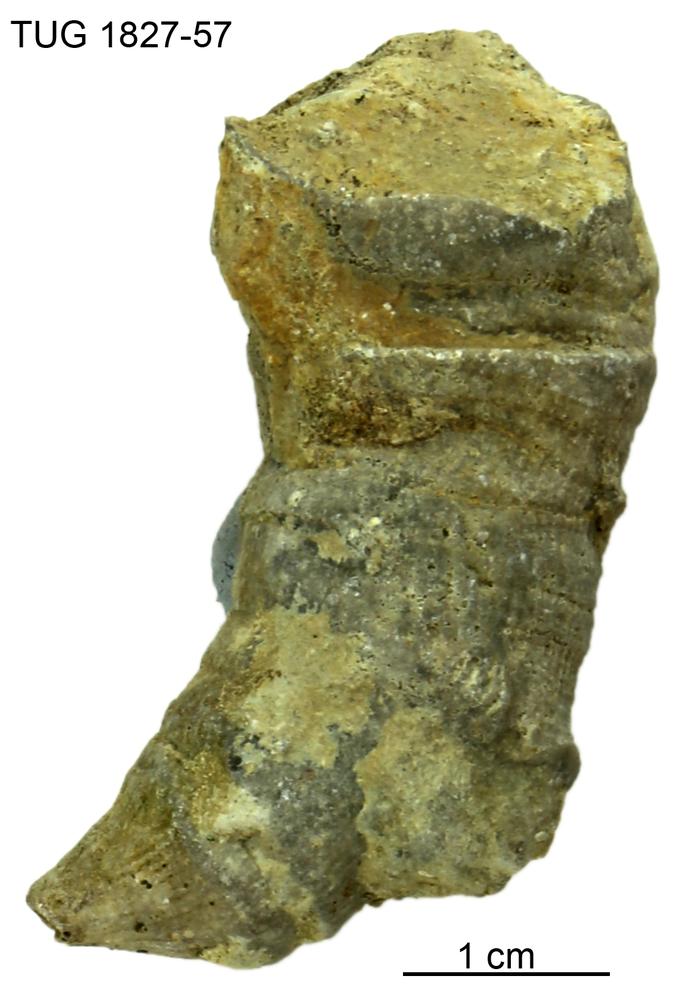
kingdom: Animalia
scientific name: Animalia
